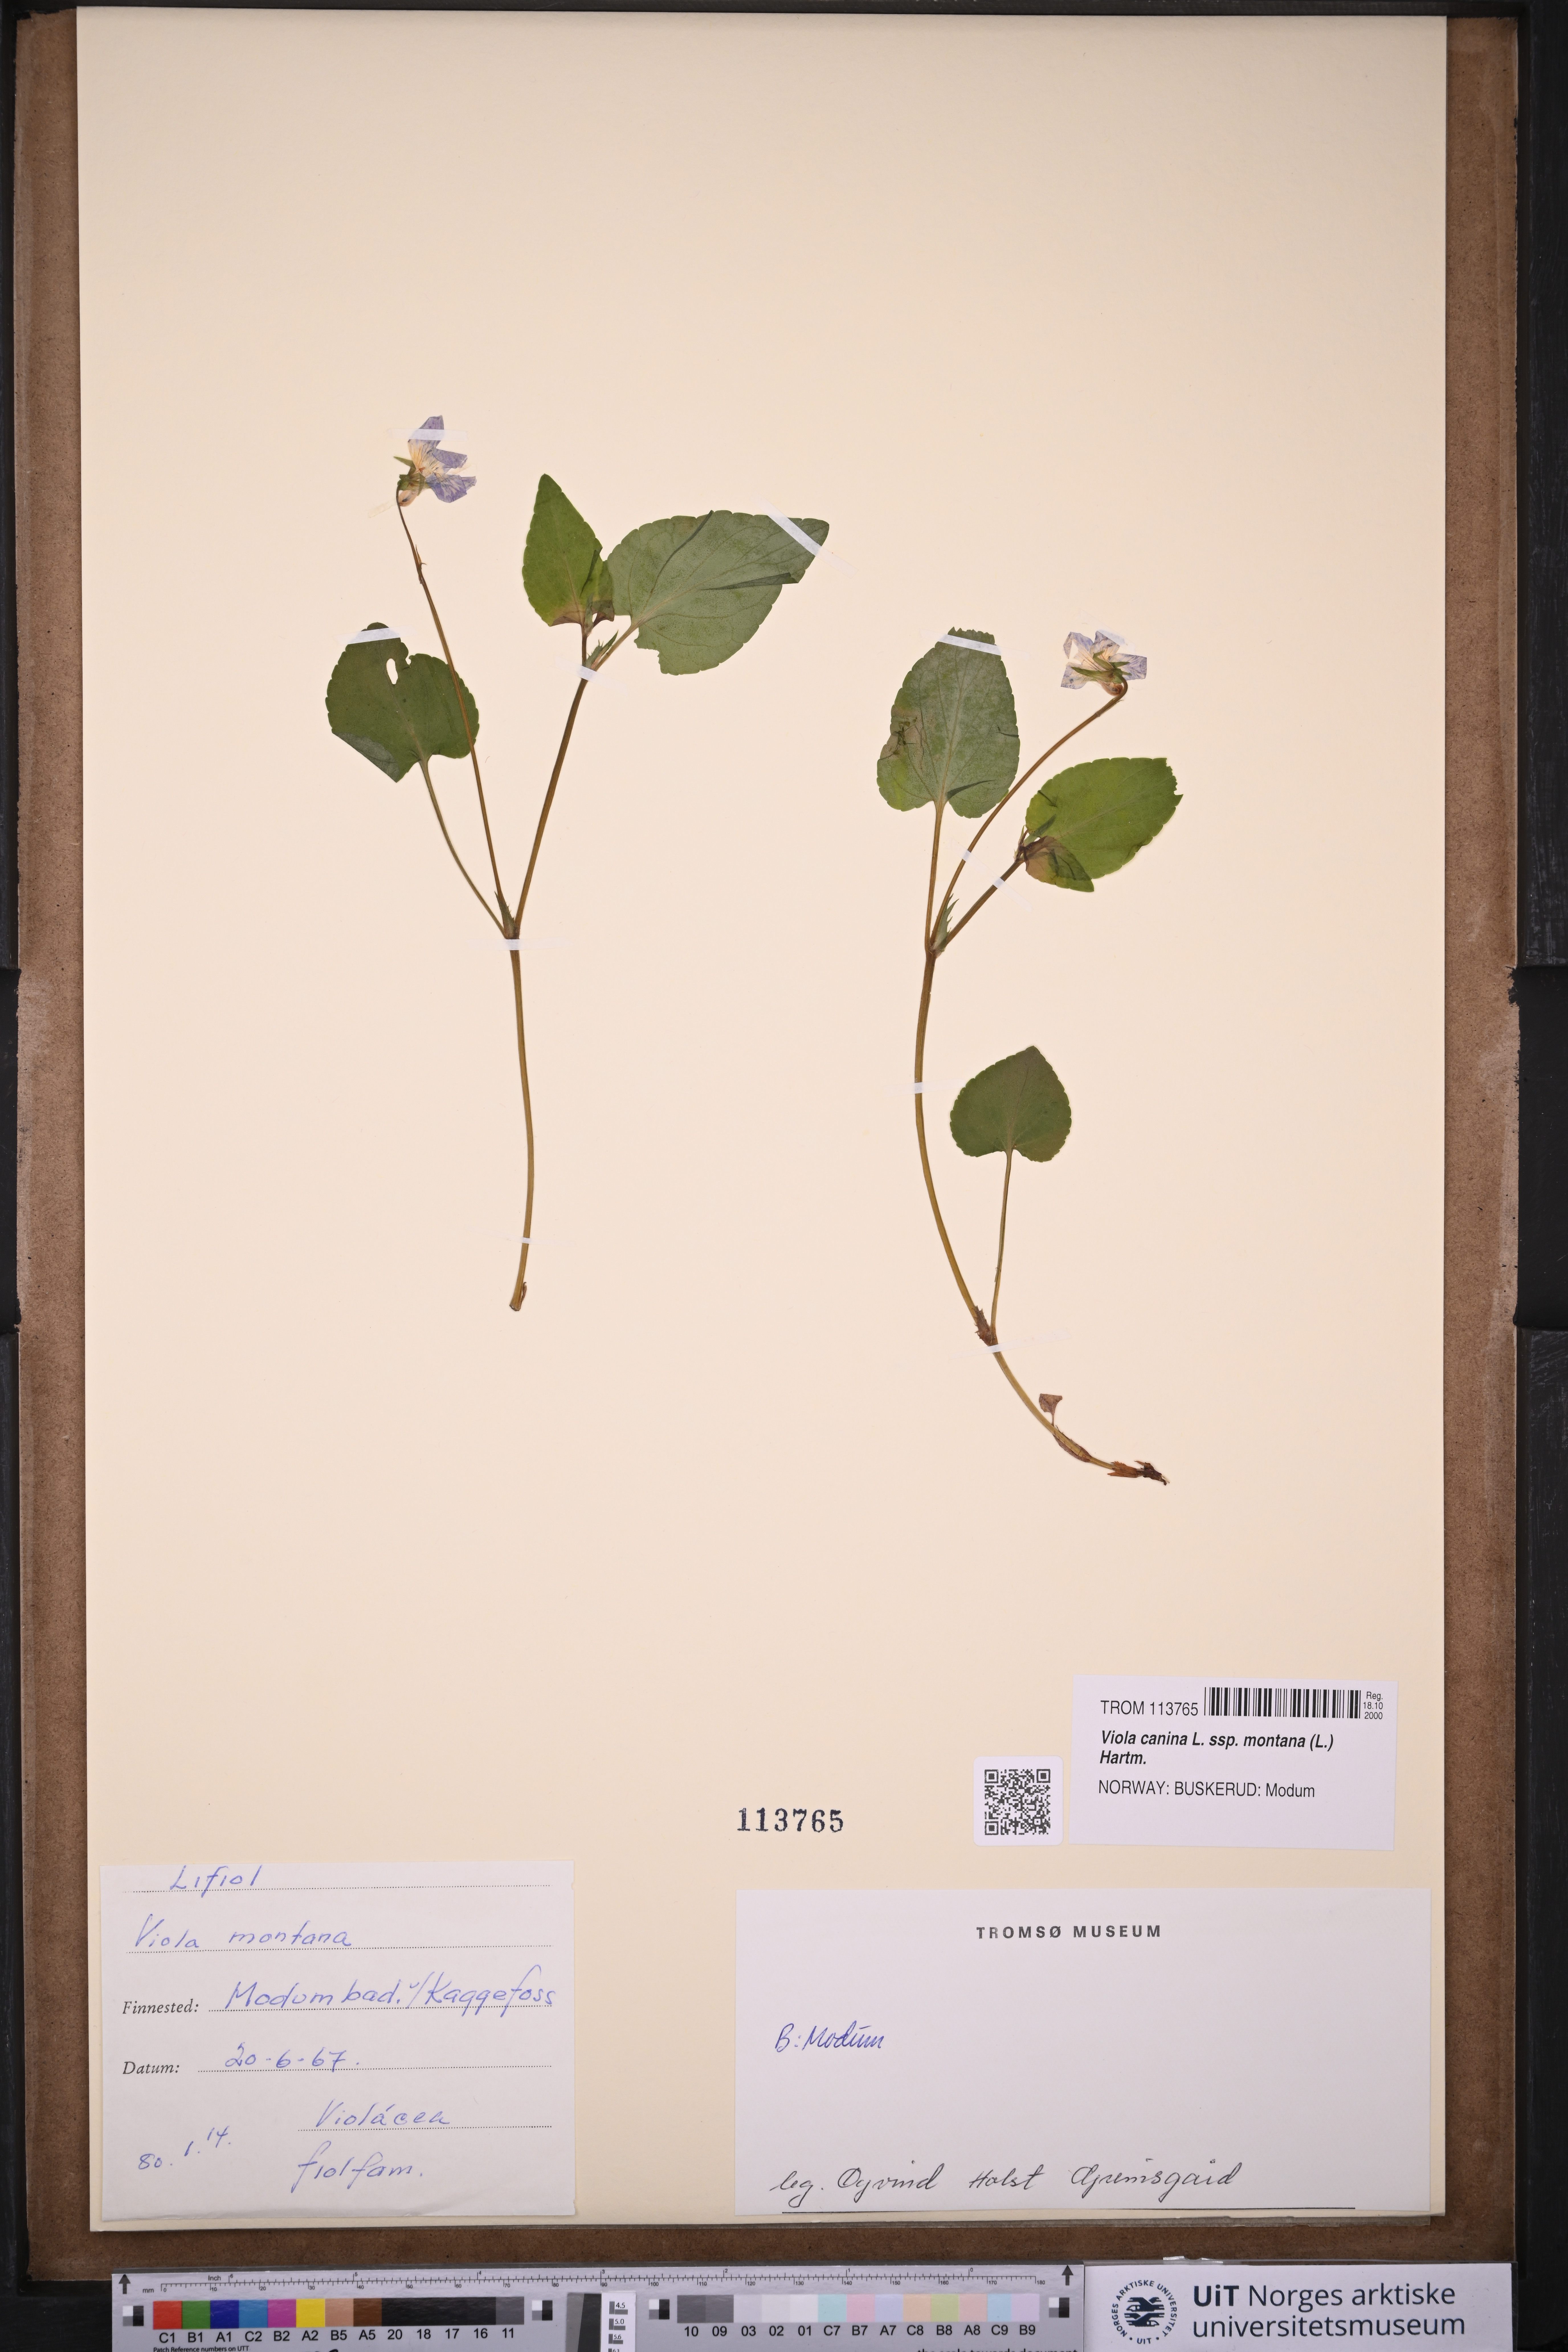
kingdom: Plantae
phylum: Tracheophyta
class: Magnoliopsida
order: Malpighiales
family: Violaceae
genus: Viola
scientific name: Viola ruppii
